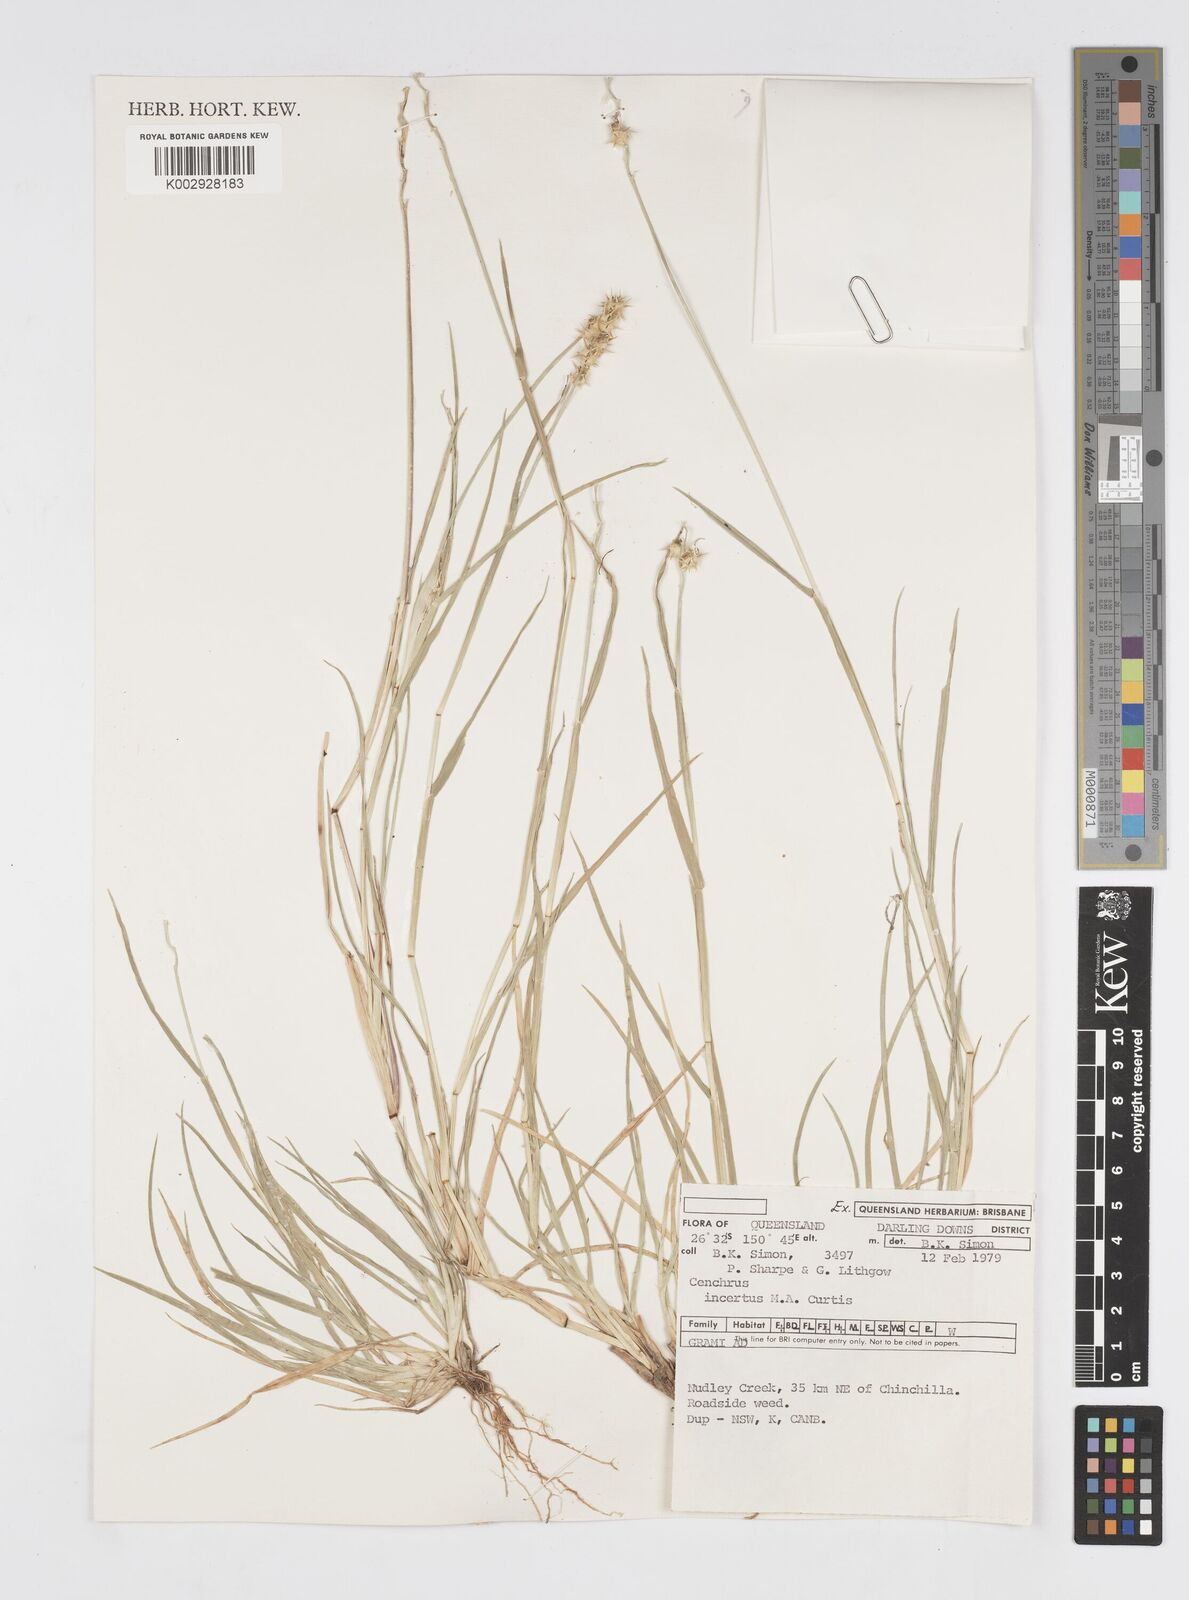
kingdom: Plantae
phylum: Tracheophyta
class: Liliopsida
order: Poales
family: Poaceae
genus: Cenchrus
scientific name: Cenchrus spinifex
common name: Coast sandbur
